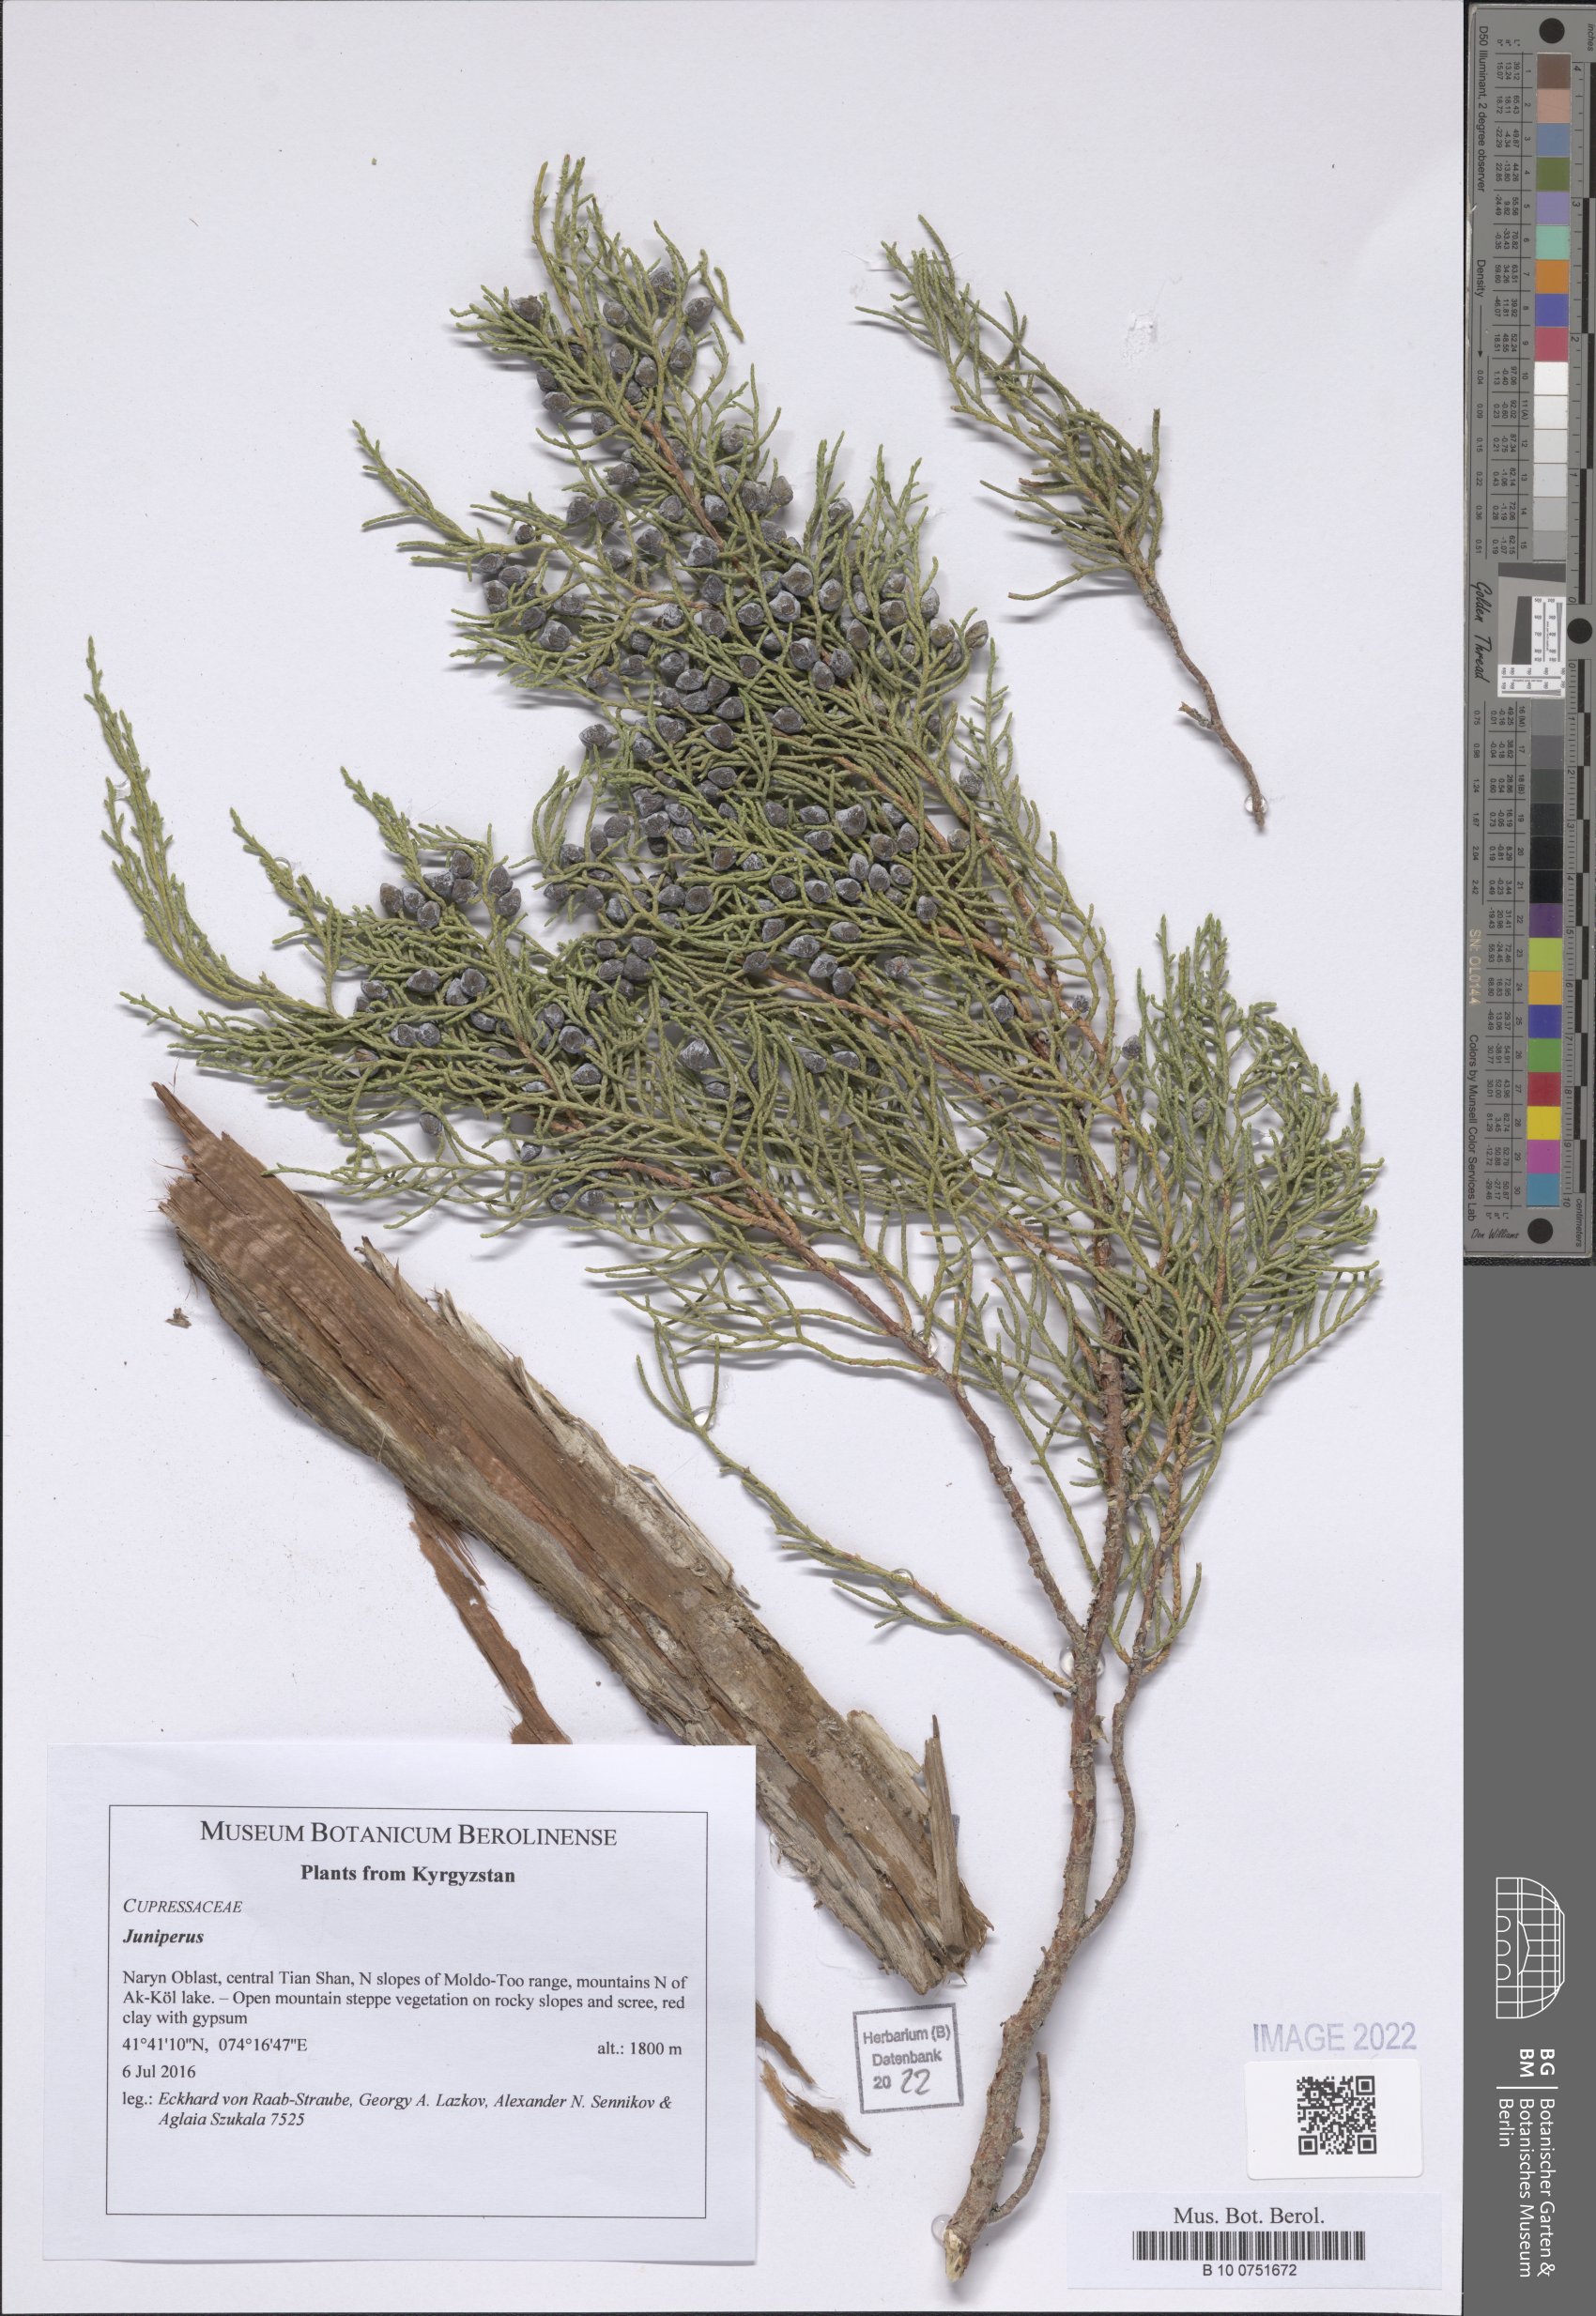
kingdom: Plantae
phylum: Tracheophyta
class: Pinopsida
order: Pinales
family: Cupressaceae
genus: Juniperus
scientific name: Juniperus
